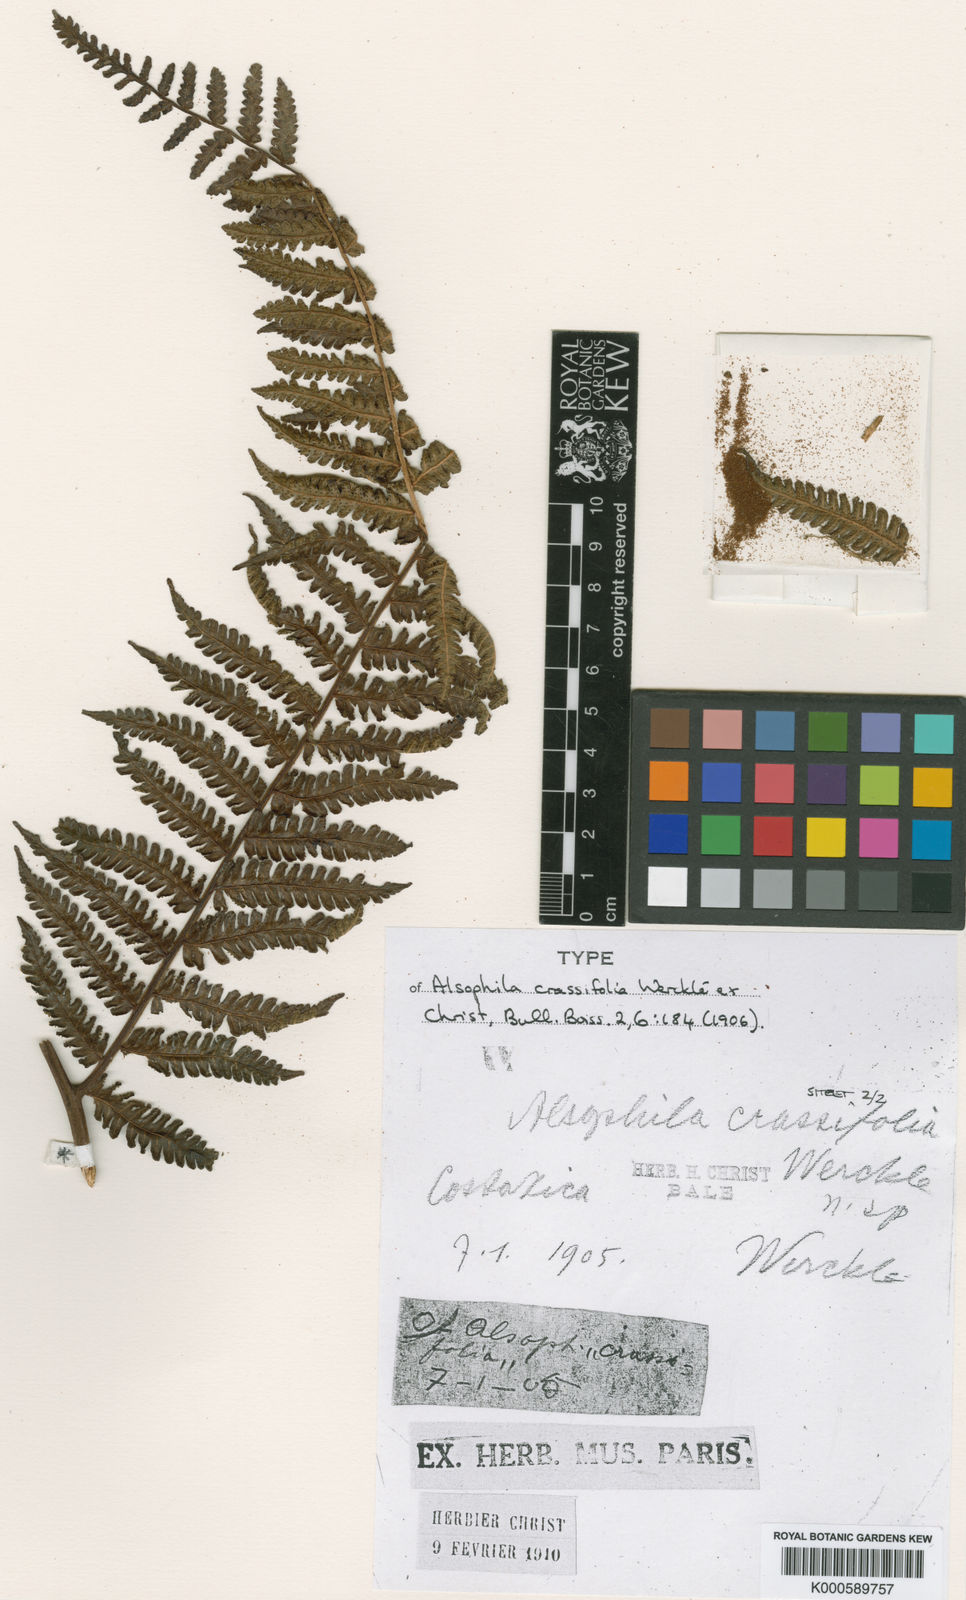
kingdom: Plantae
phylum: Tracheophyta
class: Polypodiopsida
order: Cyatheales
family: Cyatheaceae
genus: Cyathea
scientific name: Cyathea
